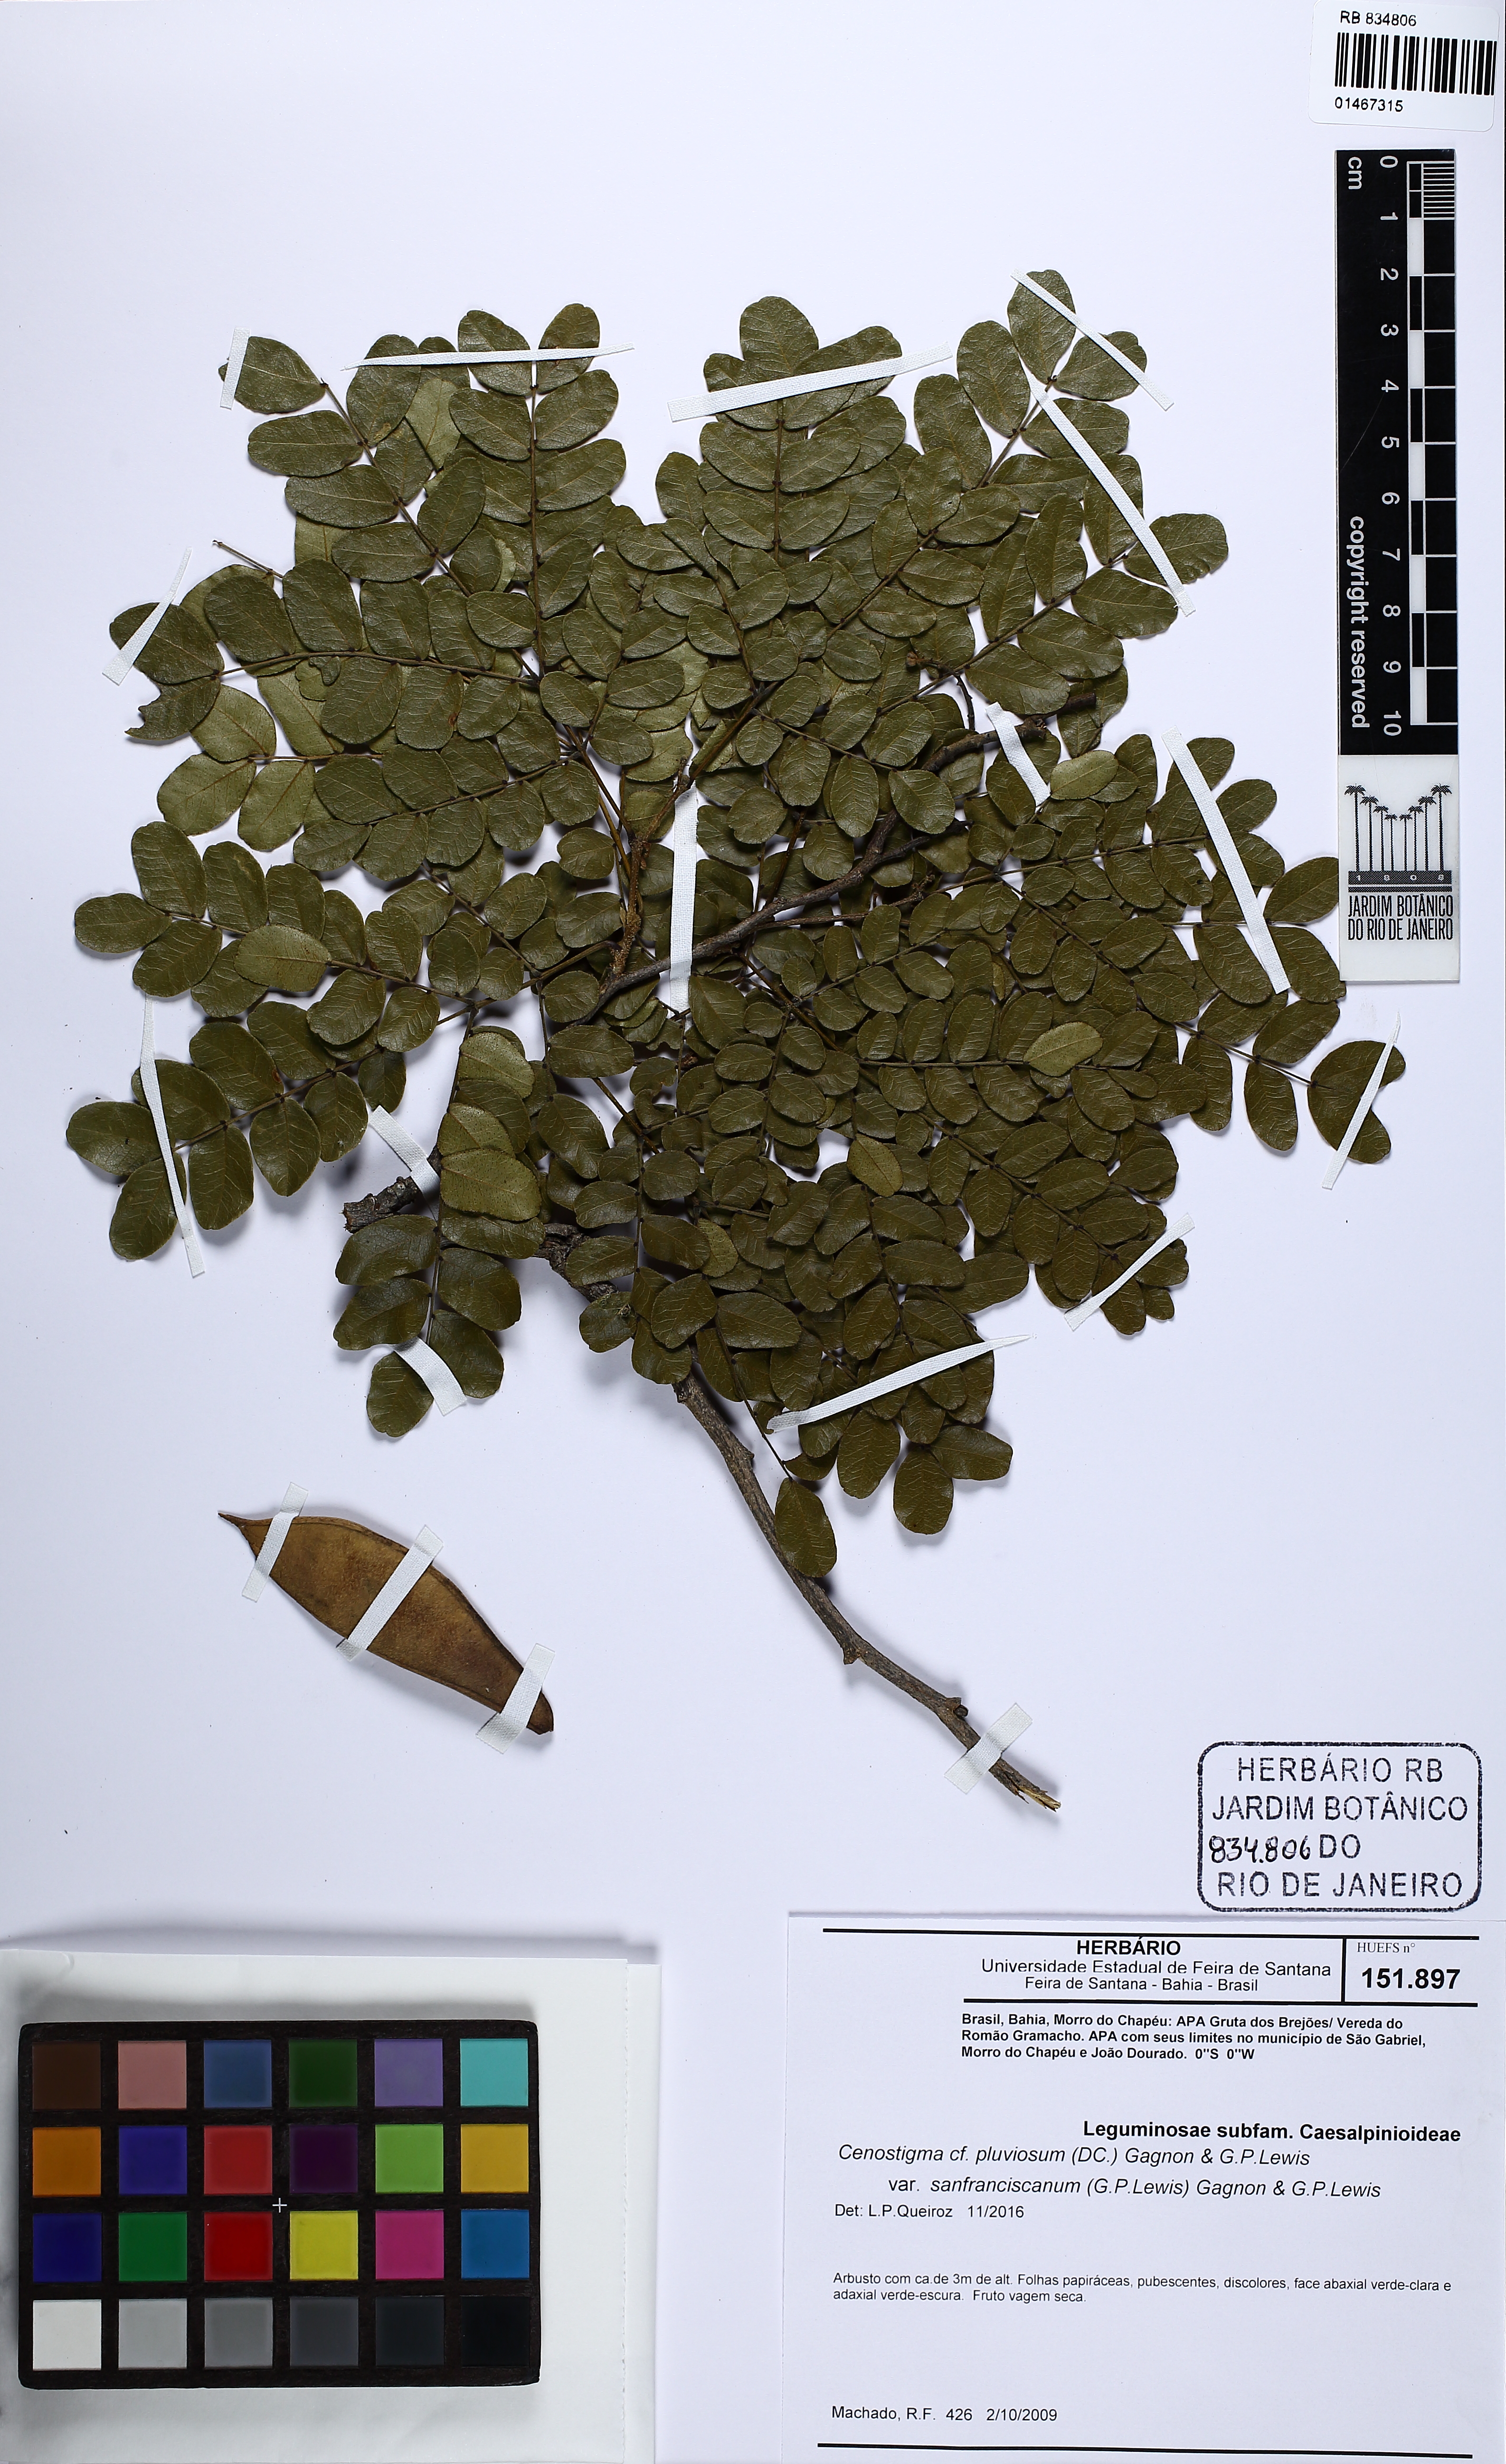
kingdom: Plantae
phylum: Tracheophyta
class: Magnoliopsida
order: Fabales
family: Fabaceae
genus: Cenostigma
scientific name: Cenostigma pluviosum
